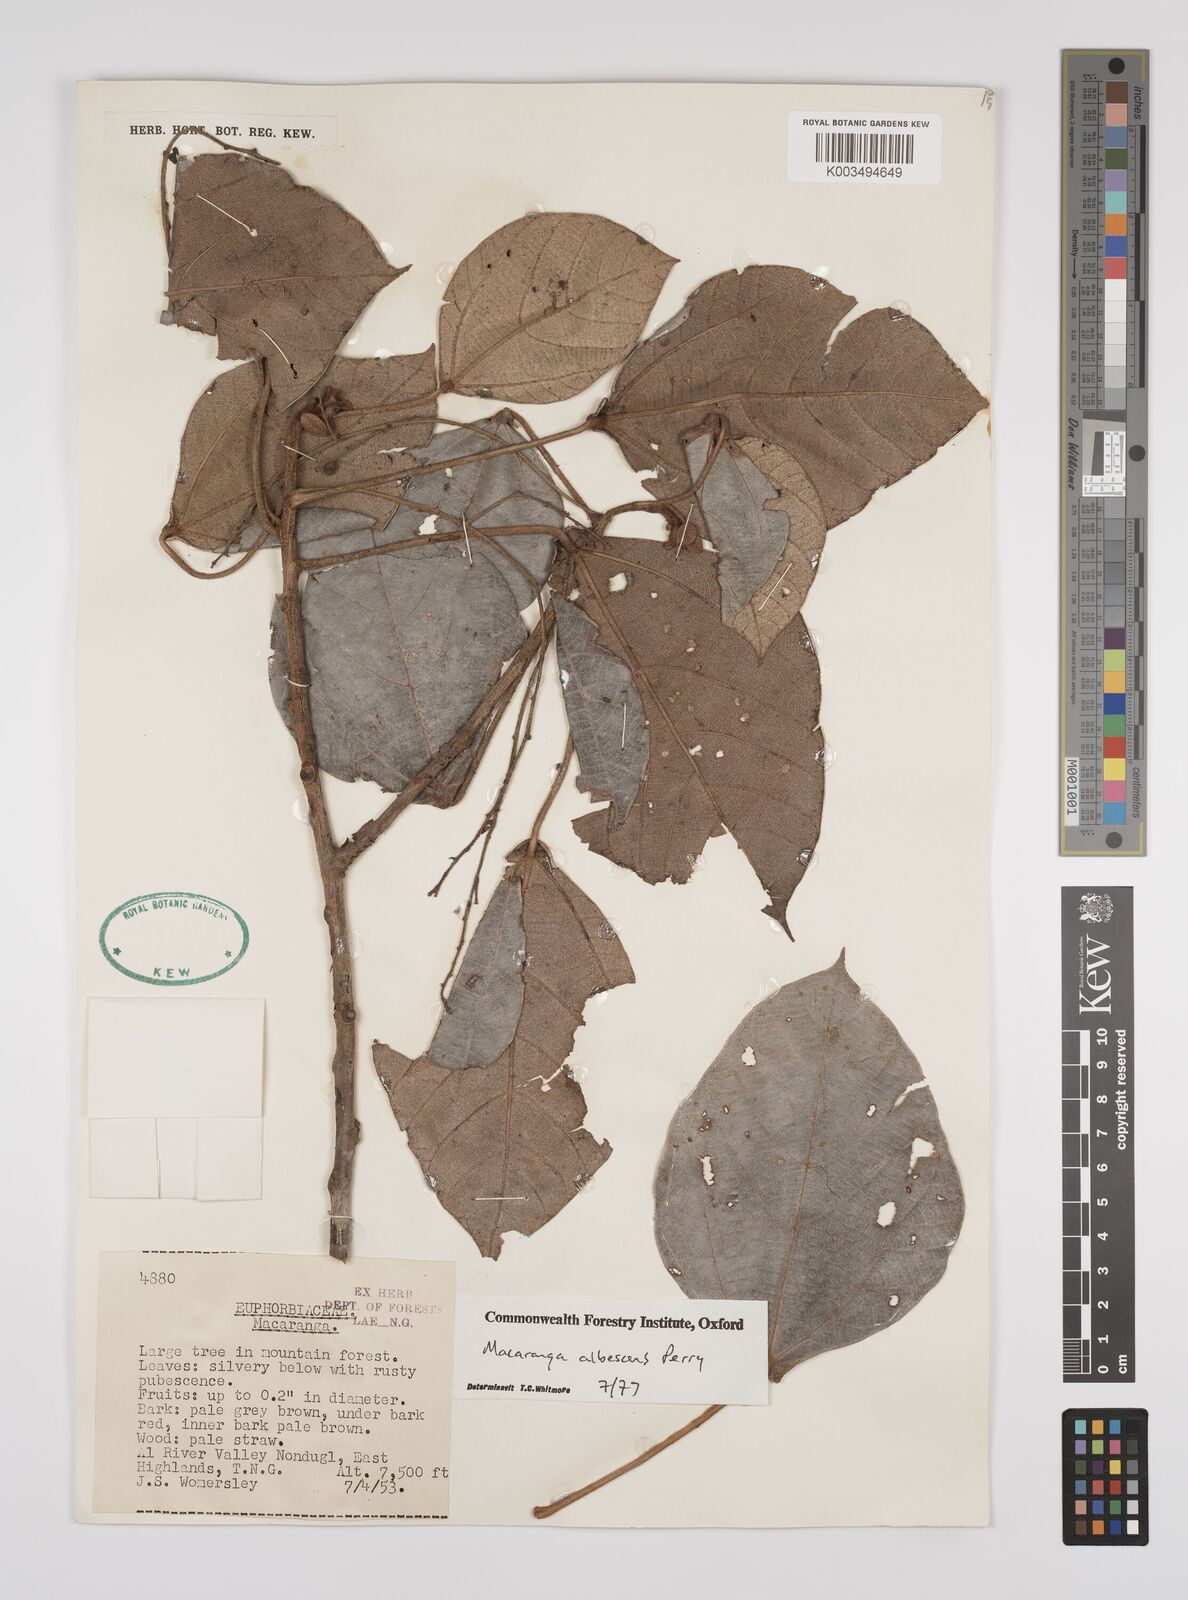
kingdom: Plantae
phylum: Tracheophyta
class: Magnoliopsida
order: Malpighiales
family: Euphorbiaceae
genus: Macaranga
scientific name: Macaranga albescens
